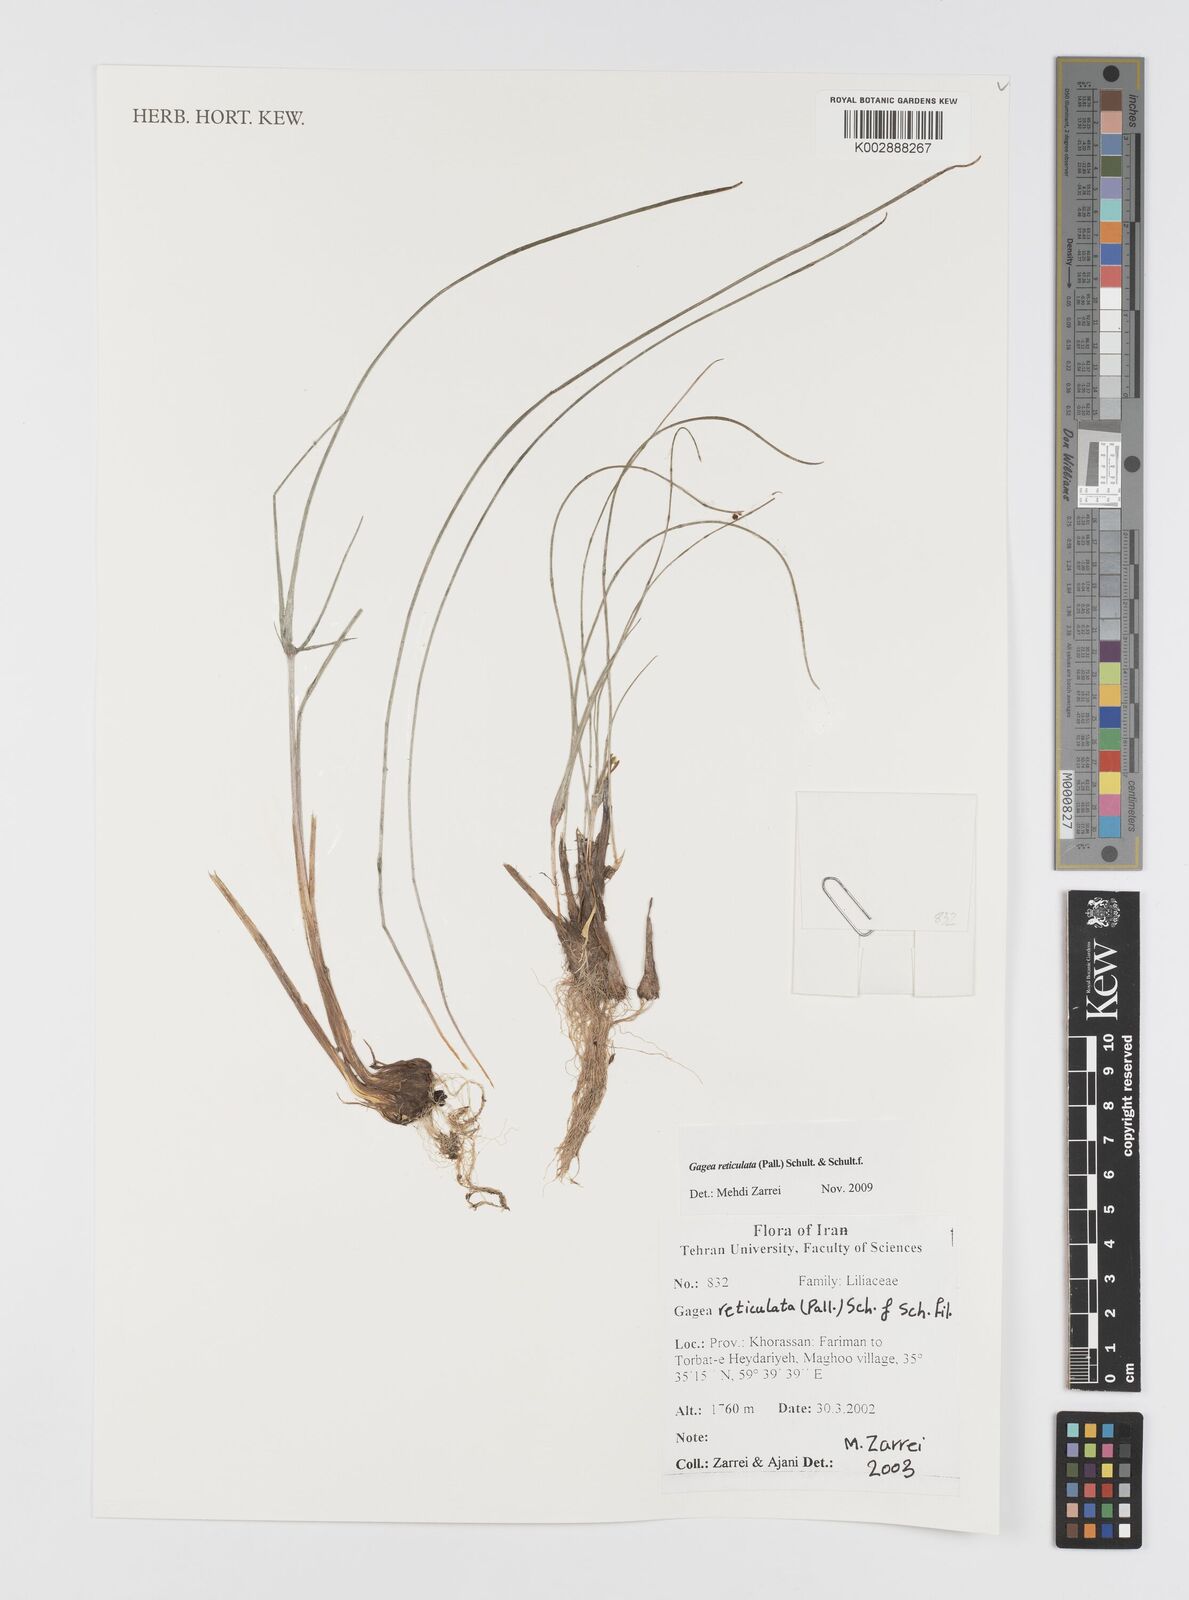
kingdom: Plantae
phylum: Tracheophyta
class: Liliopsida
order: Liliales
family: Liliaceae
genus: Gagea
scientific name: Gagea reticulata
